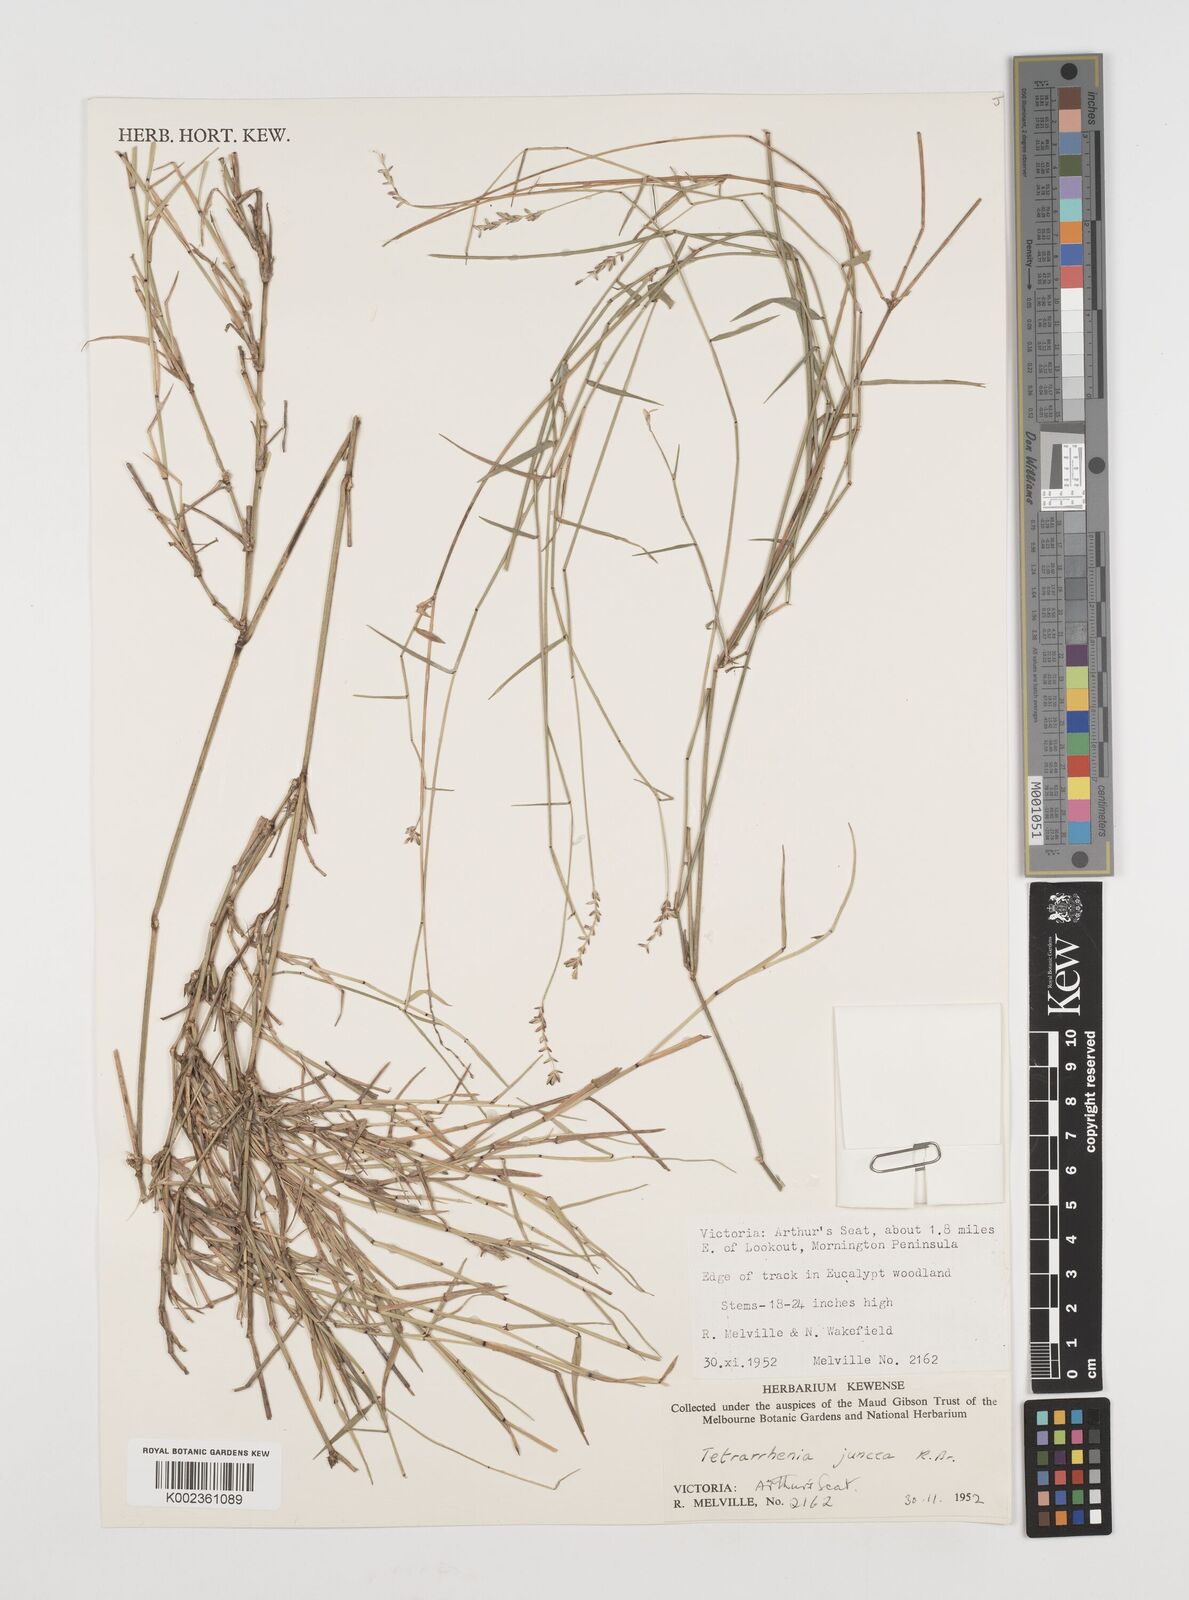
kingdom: Plantae
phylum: Tracheophyta
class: Liliopsida
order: Poales
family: Poaceae
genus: Tetrarrhena
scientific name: Tetrarrhena juncea
